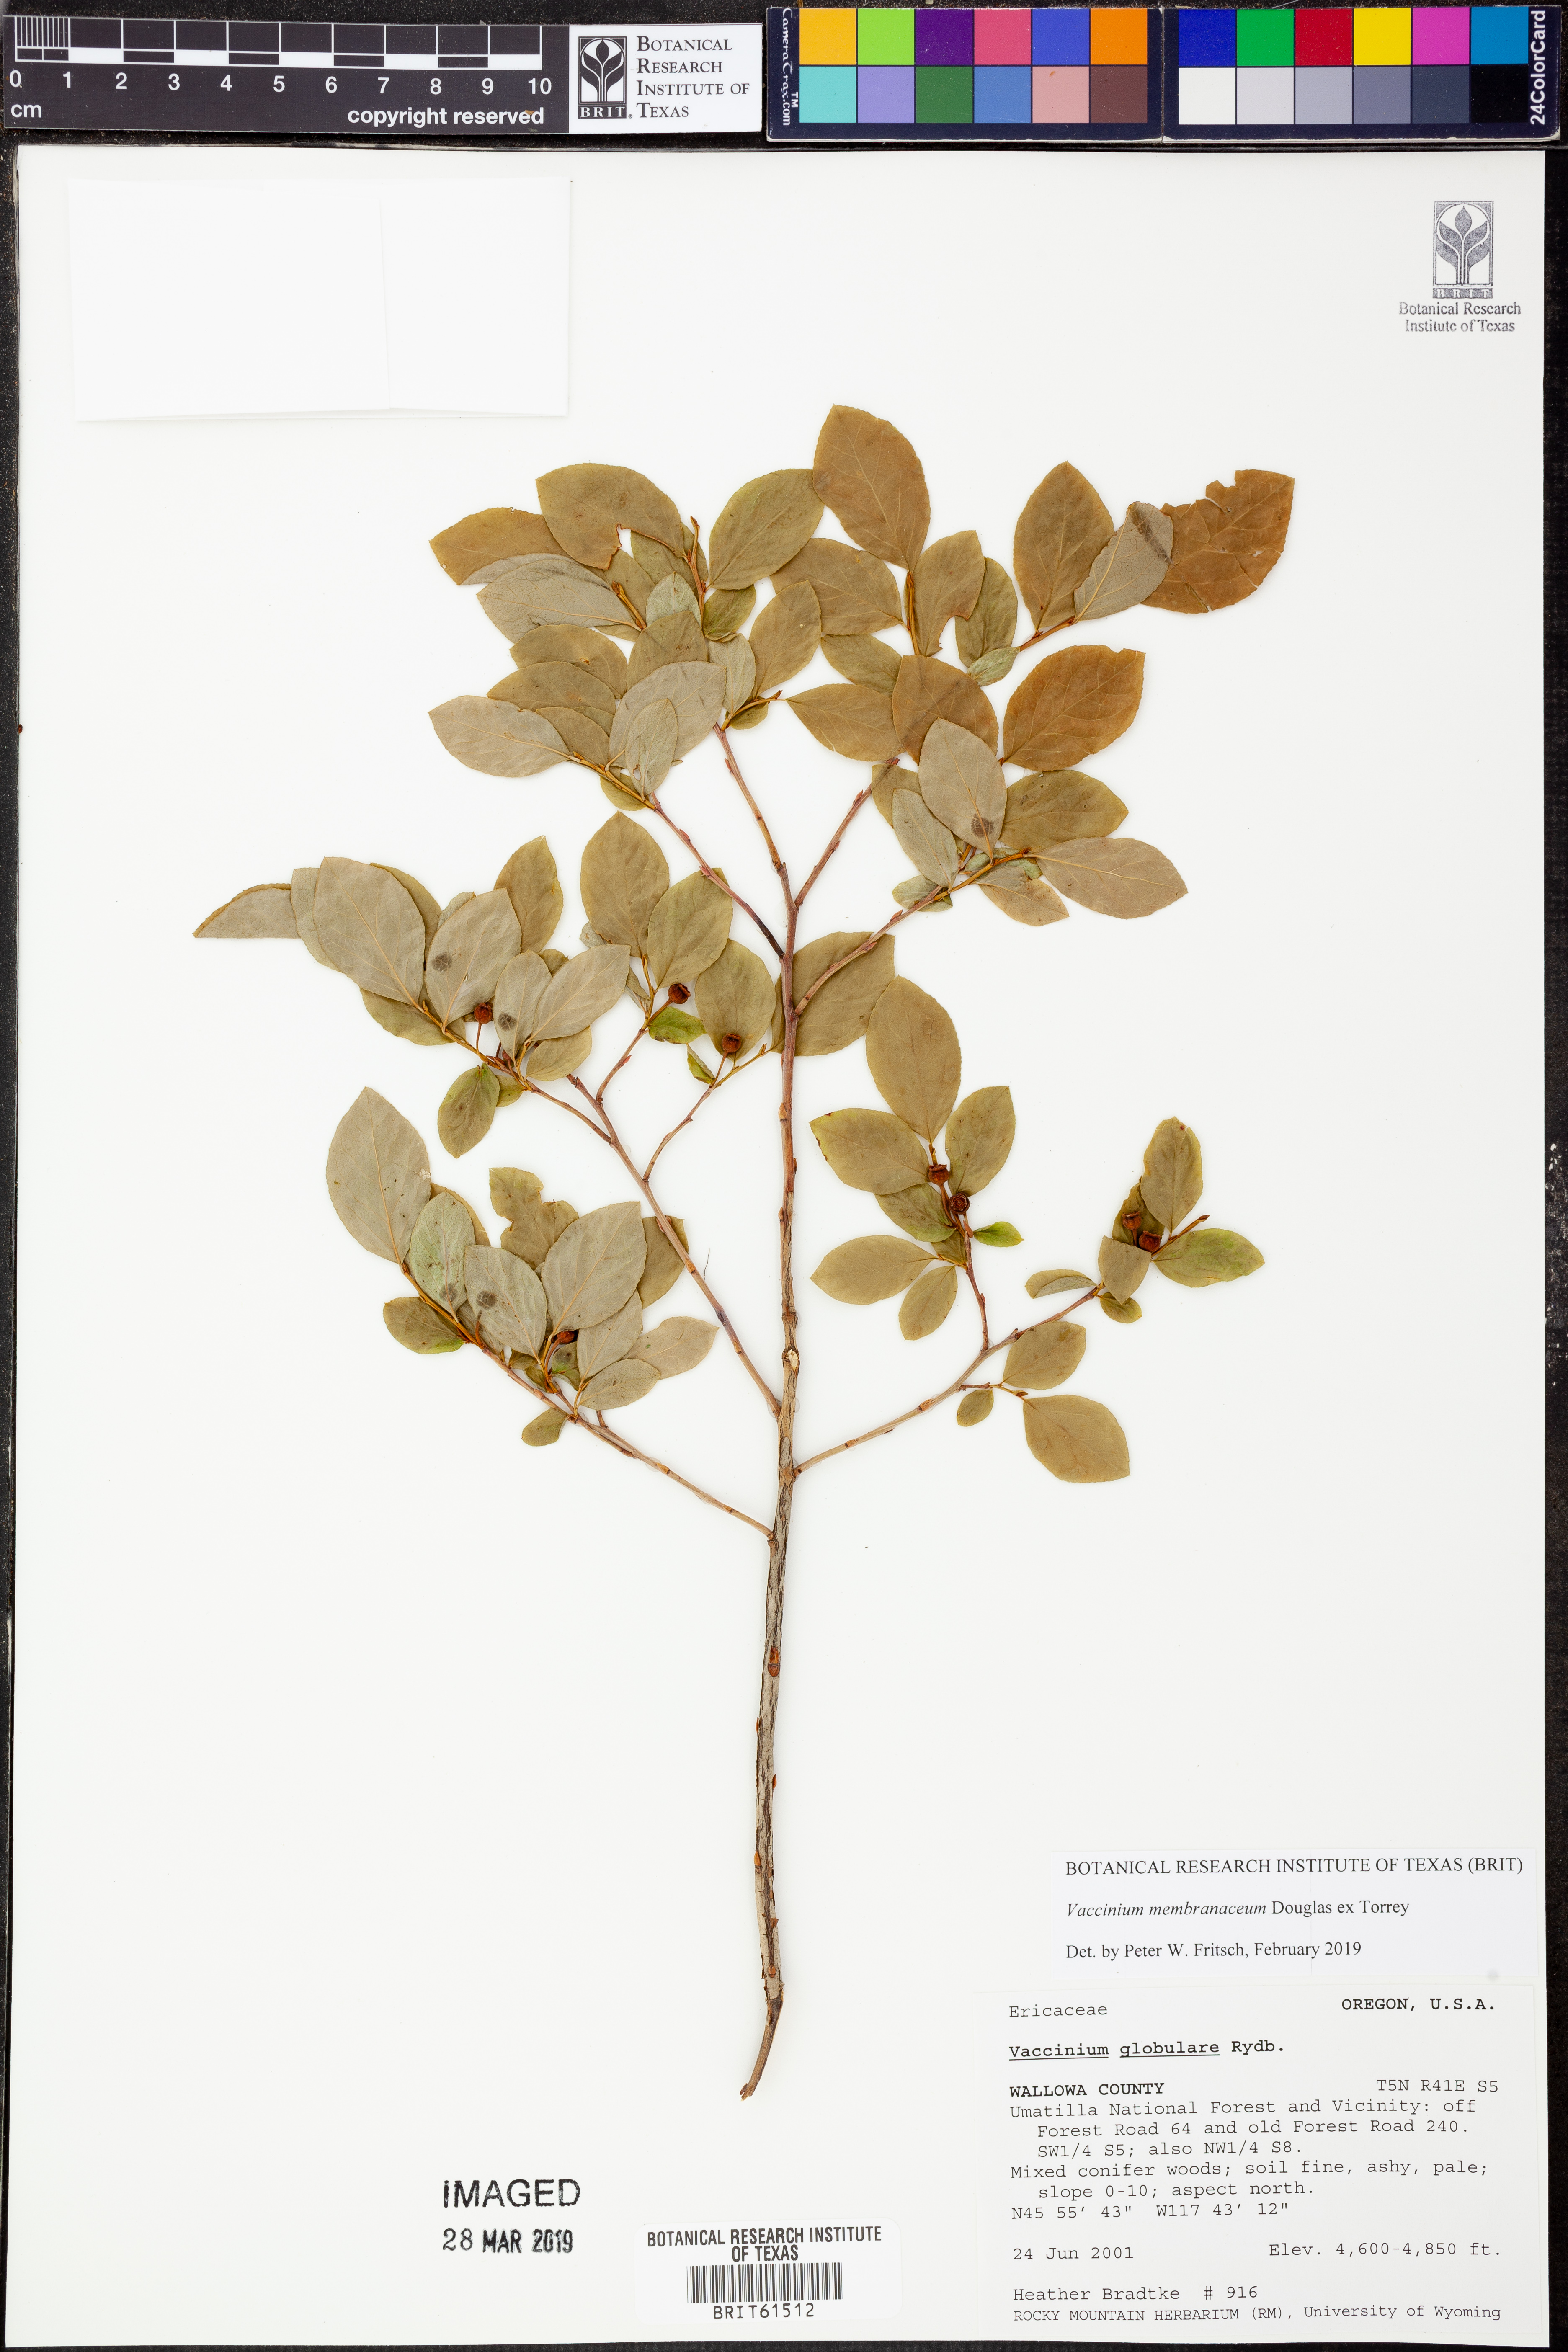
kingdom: Plantae
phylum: Tracheophyta
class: Magnoliopsida
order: Ericales
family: Ericaceae
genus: Vaccinium
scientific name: Vaccinium membranaceum
